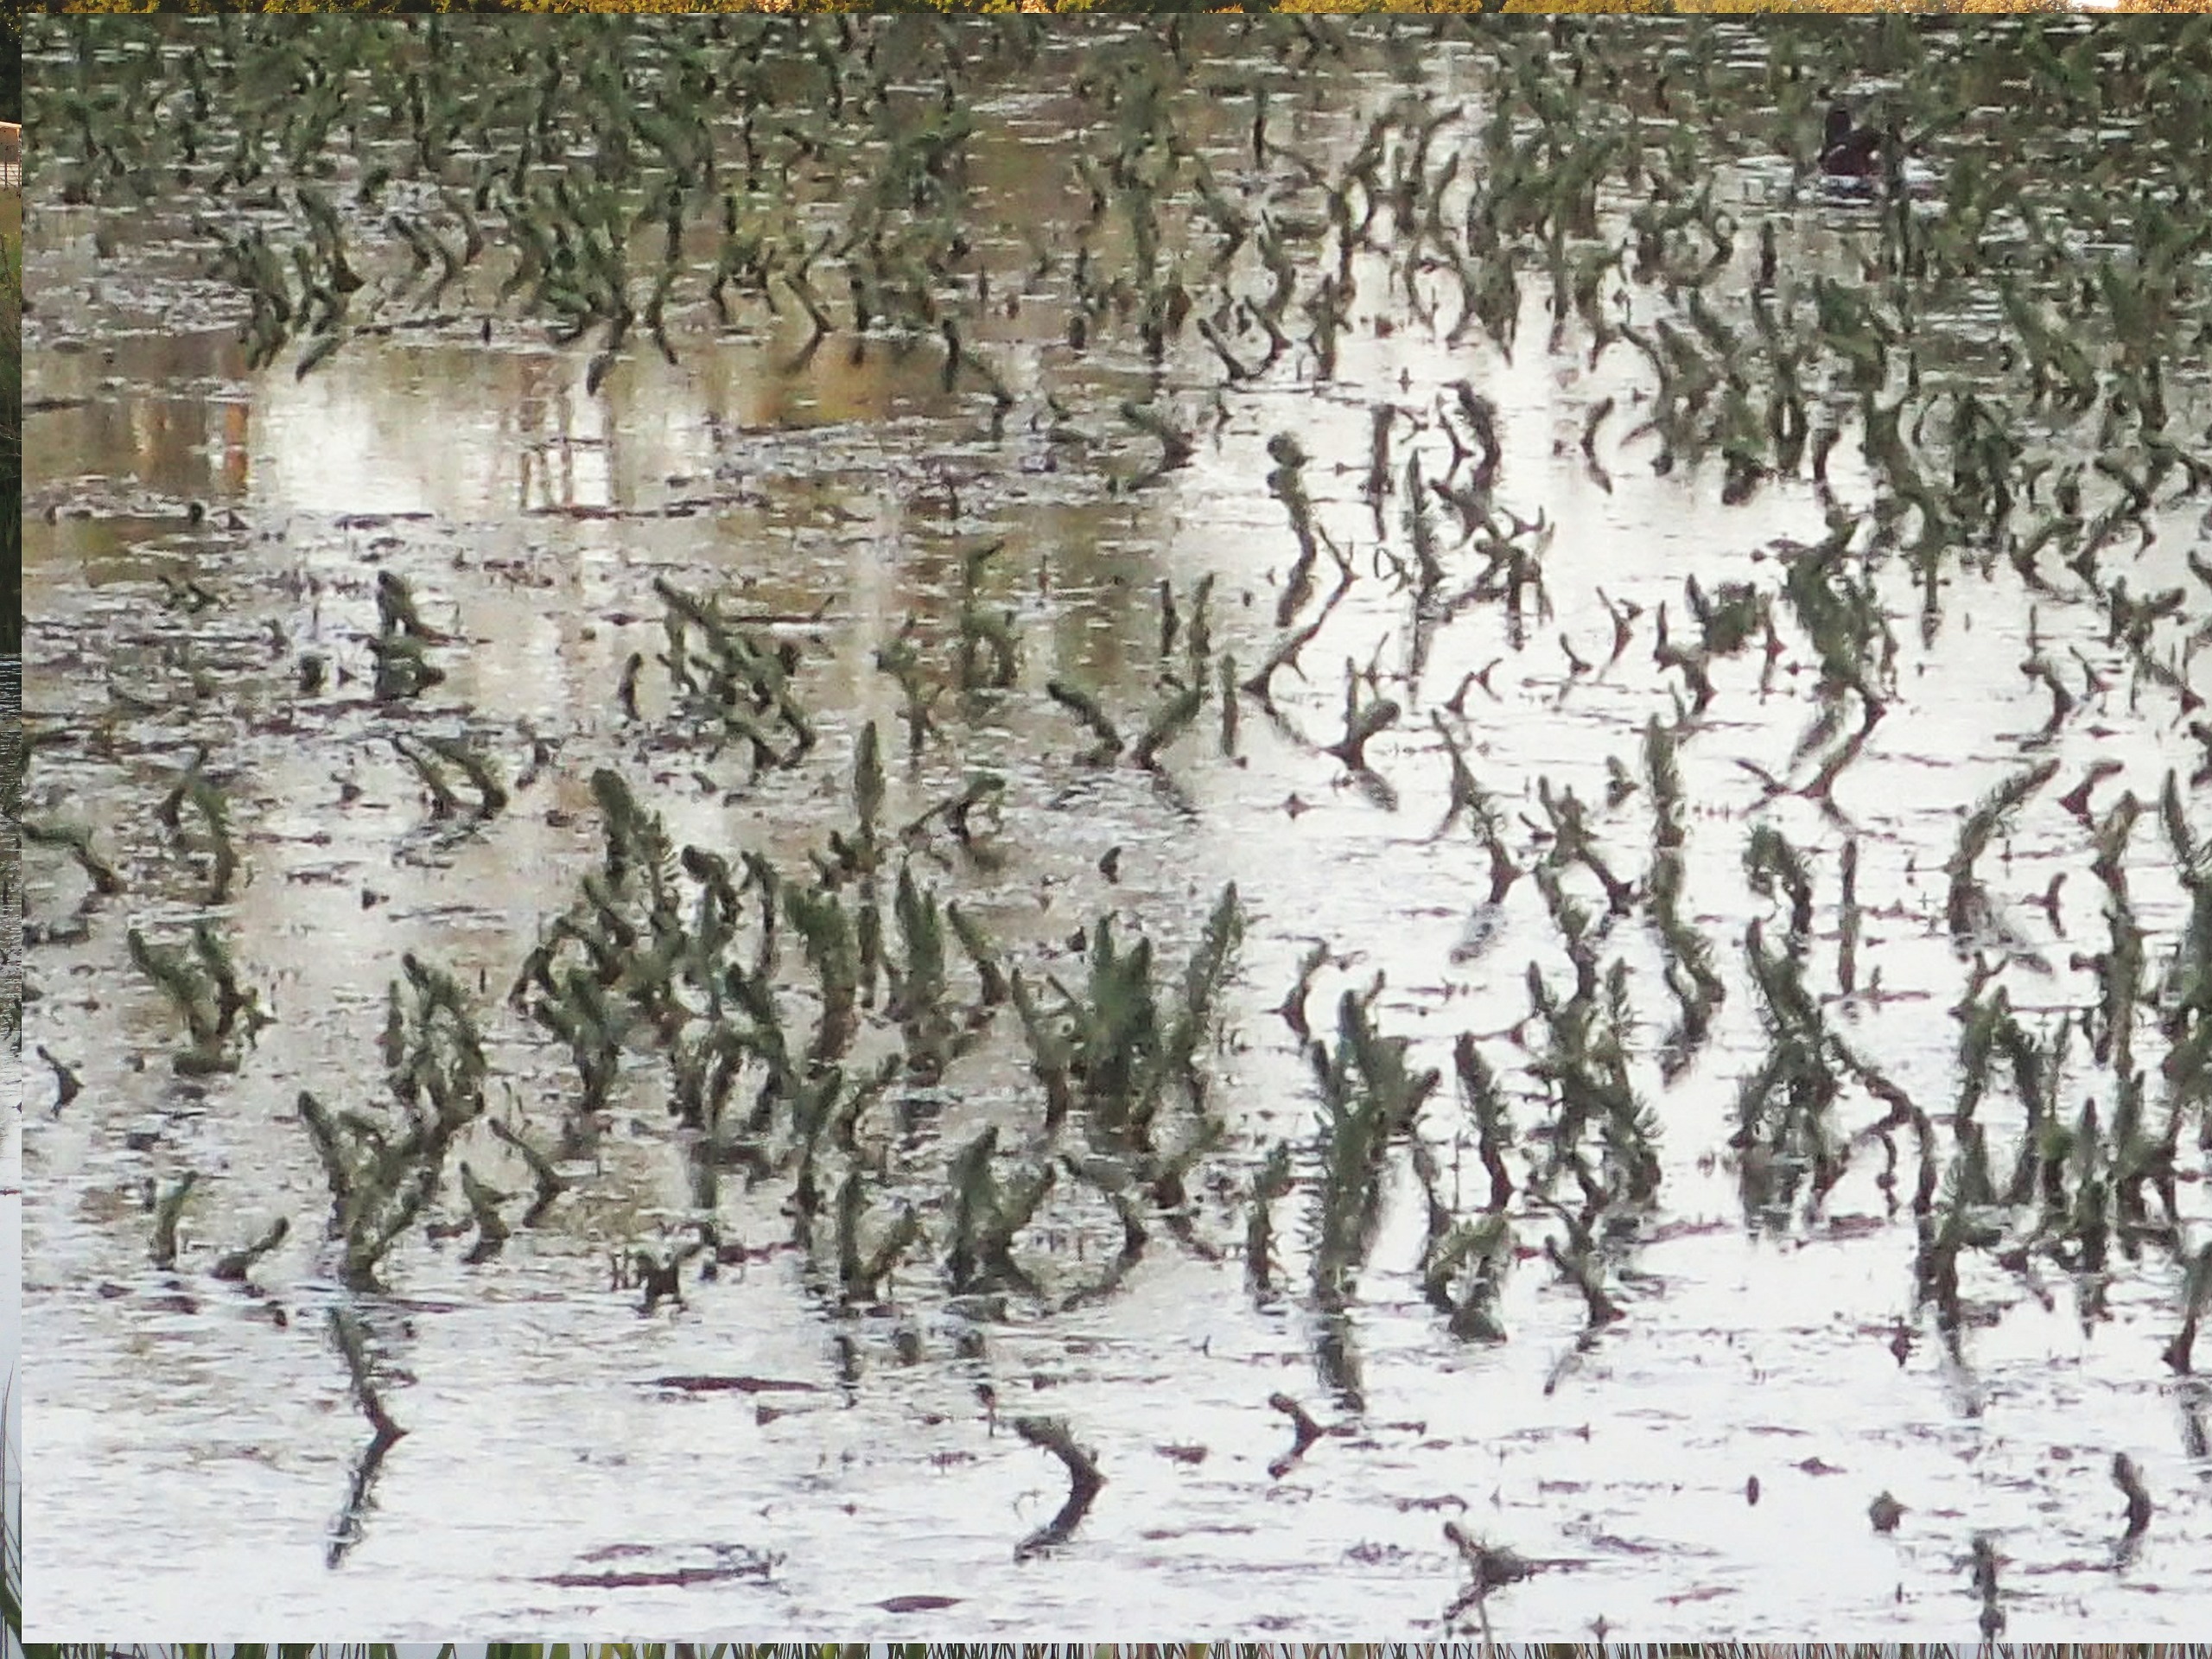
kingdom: Plantae
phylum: Tracheophyta
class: Magnoliopsida
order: Lamiales
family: Plantaginaceae
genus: Hippuris
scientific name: Hippuris vulgaris
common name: Vandspir
